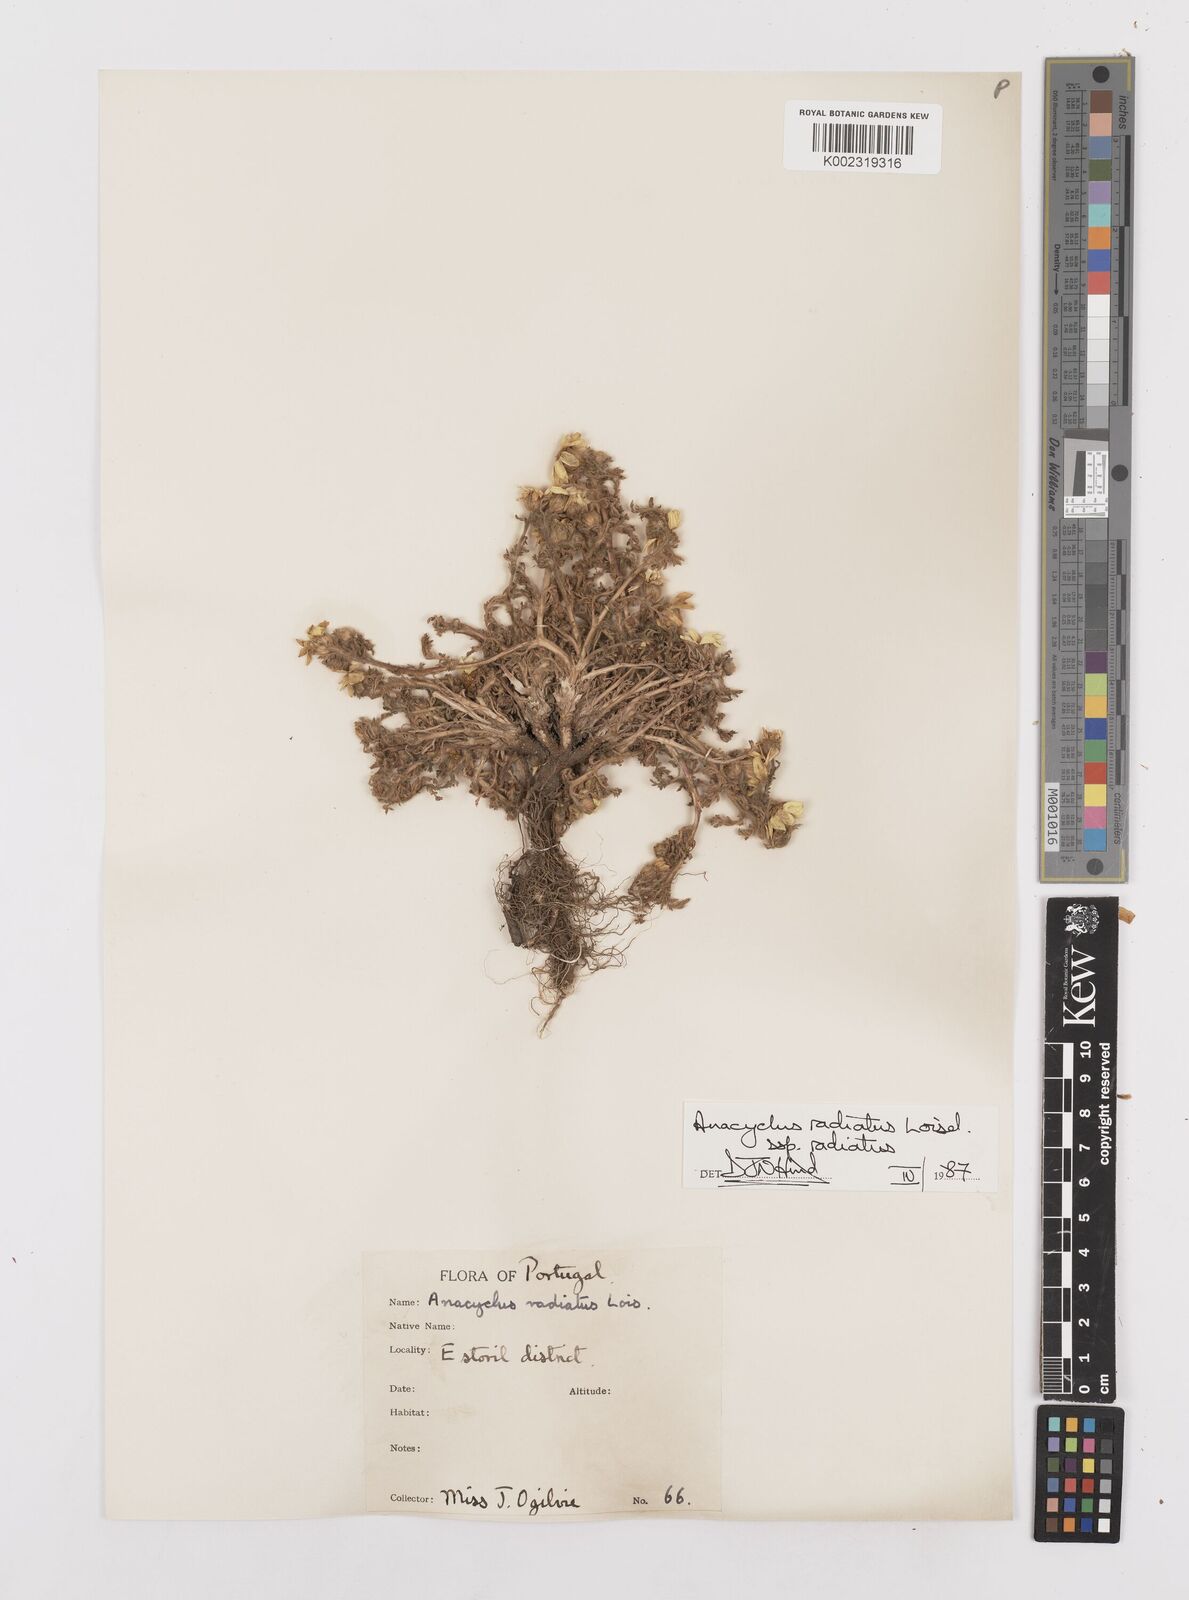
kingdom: Plantae
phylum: Tracheophyta
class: Magnoliopsida
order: Asterales
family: Asteraceae
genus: Anacyclus
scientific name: Anacyclus radiatus
